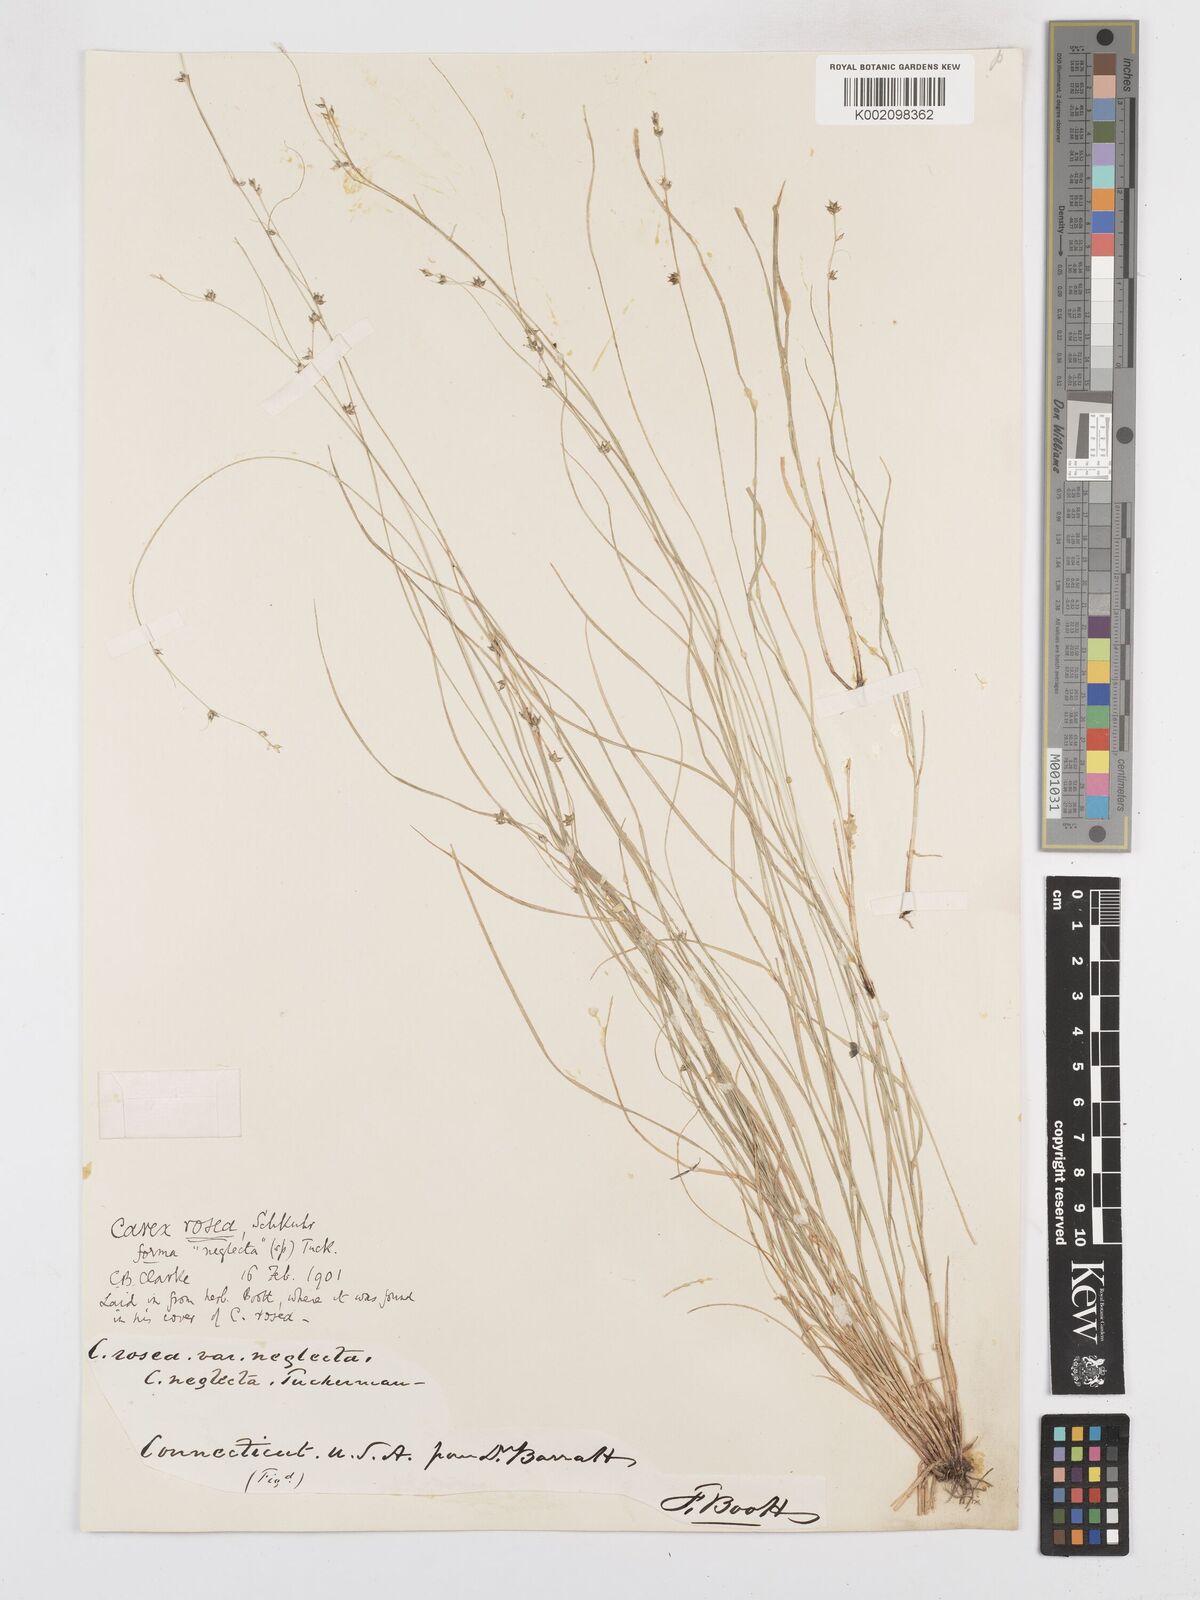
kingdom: Plantae
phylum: Tracheophyta
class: Liliopsida
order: Poales
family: Cyperaceae
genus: Carex
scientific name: Carex rosea
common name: Curly-styled wood sedge
